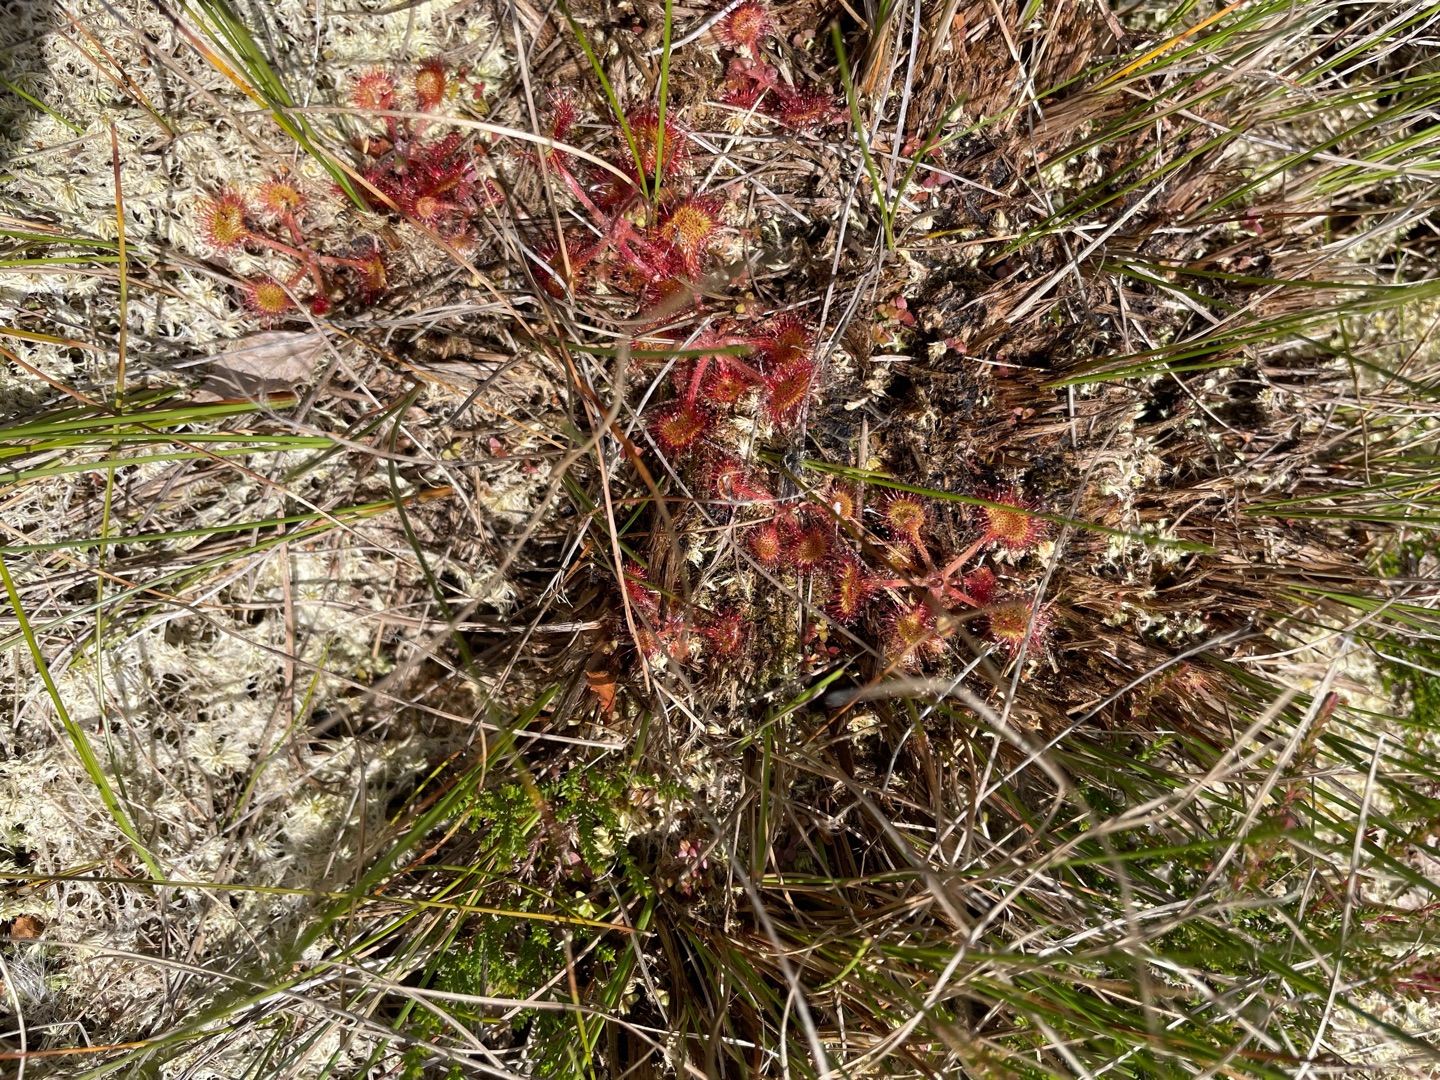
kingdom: Plantae
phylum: Tracheophyta
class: Magnoliopsida
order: Caryophyllales
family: Droseraceae
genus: Drosera
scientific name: Drosera rotundifolia
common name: Rundbladet soldug
